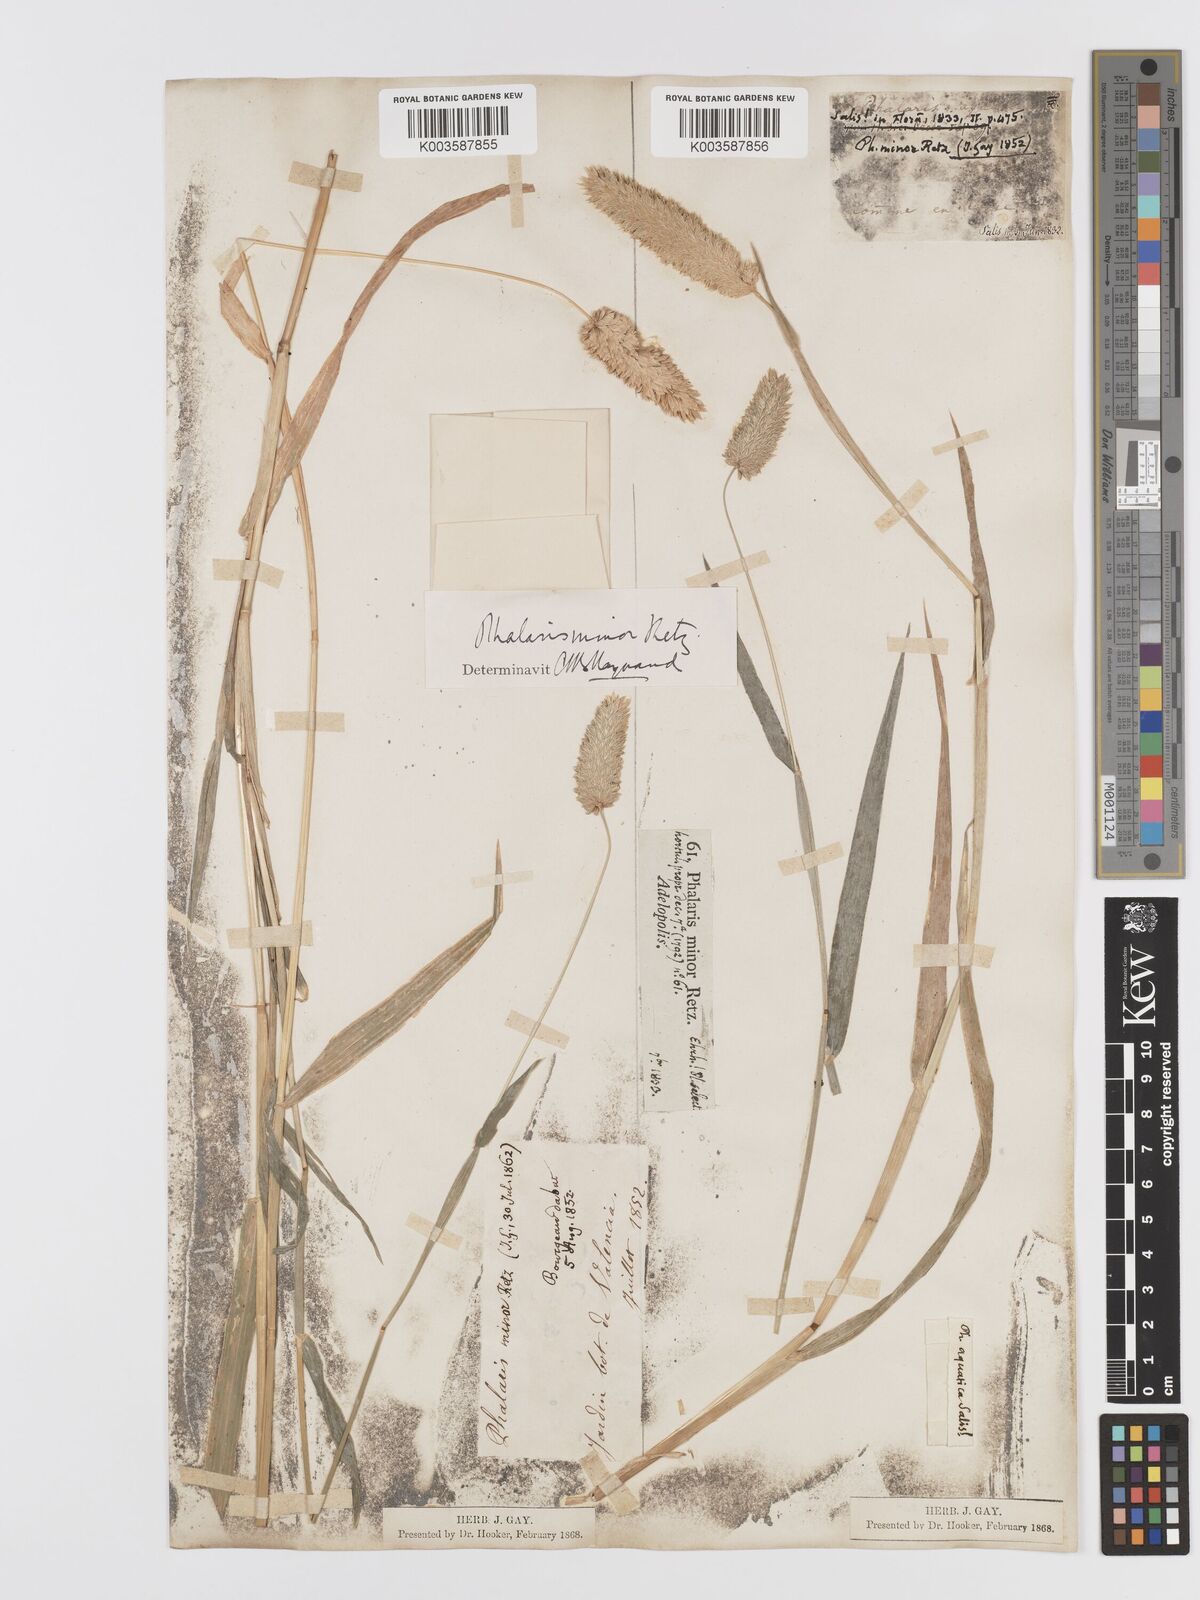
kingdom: Plantae
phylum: Tracheophyta
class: Liliopsida
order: Poales
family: Poaceae
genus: Phalaris
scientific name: Phalaris minor
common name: Littleseed canarygrass
